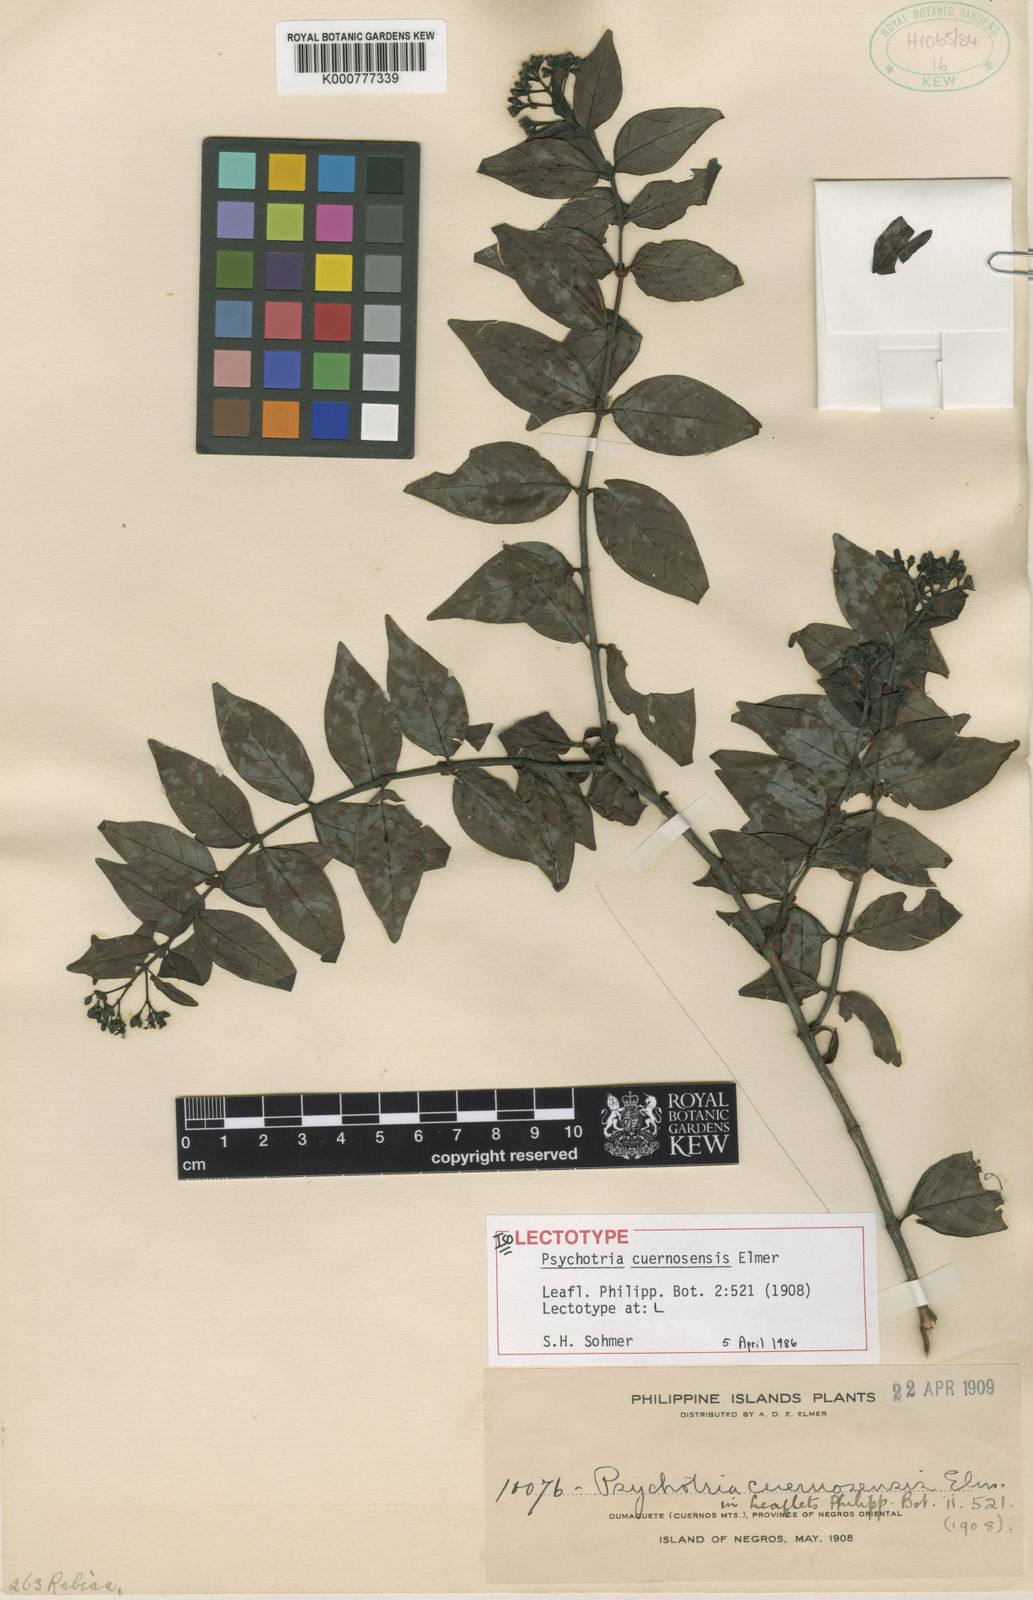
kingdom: Plantae
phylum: Tracheophyta
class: Magnoliopsida
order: Gentianales
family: Rubiaceae
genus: Psychotria
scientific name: Psychotria cuernosensis
